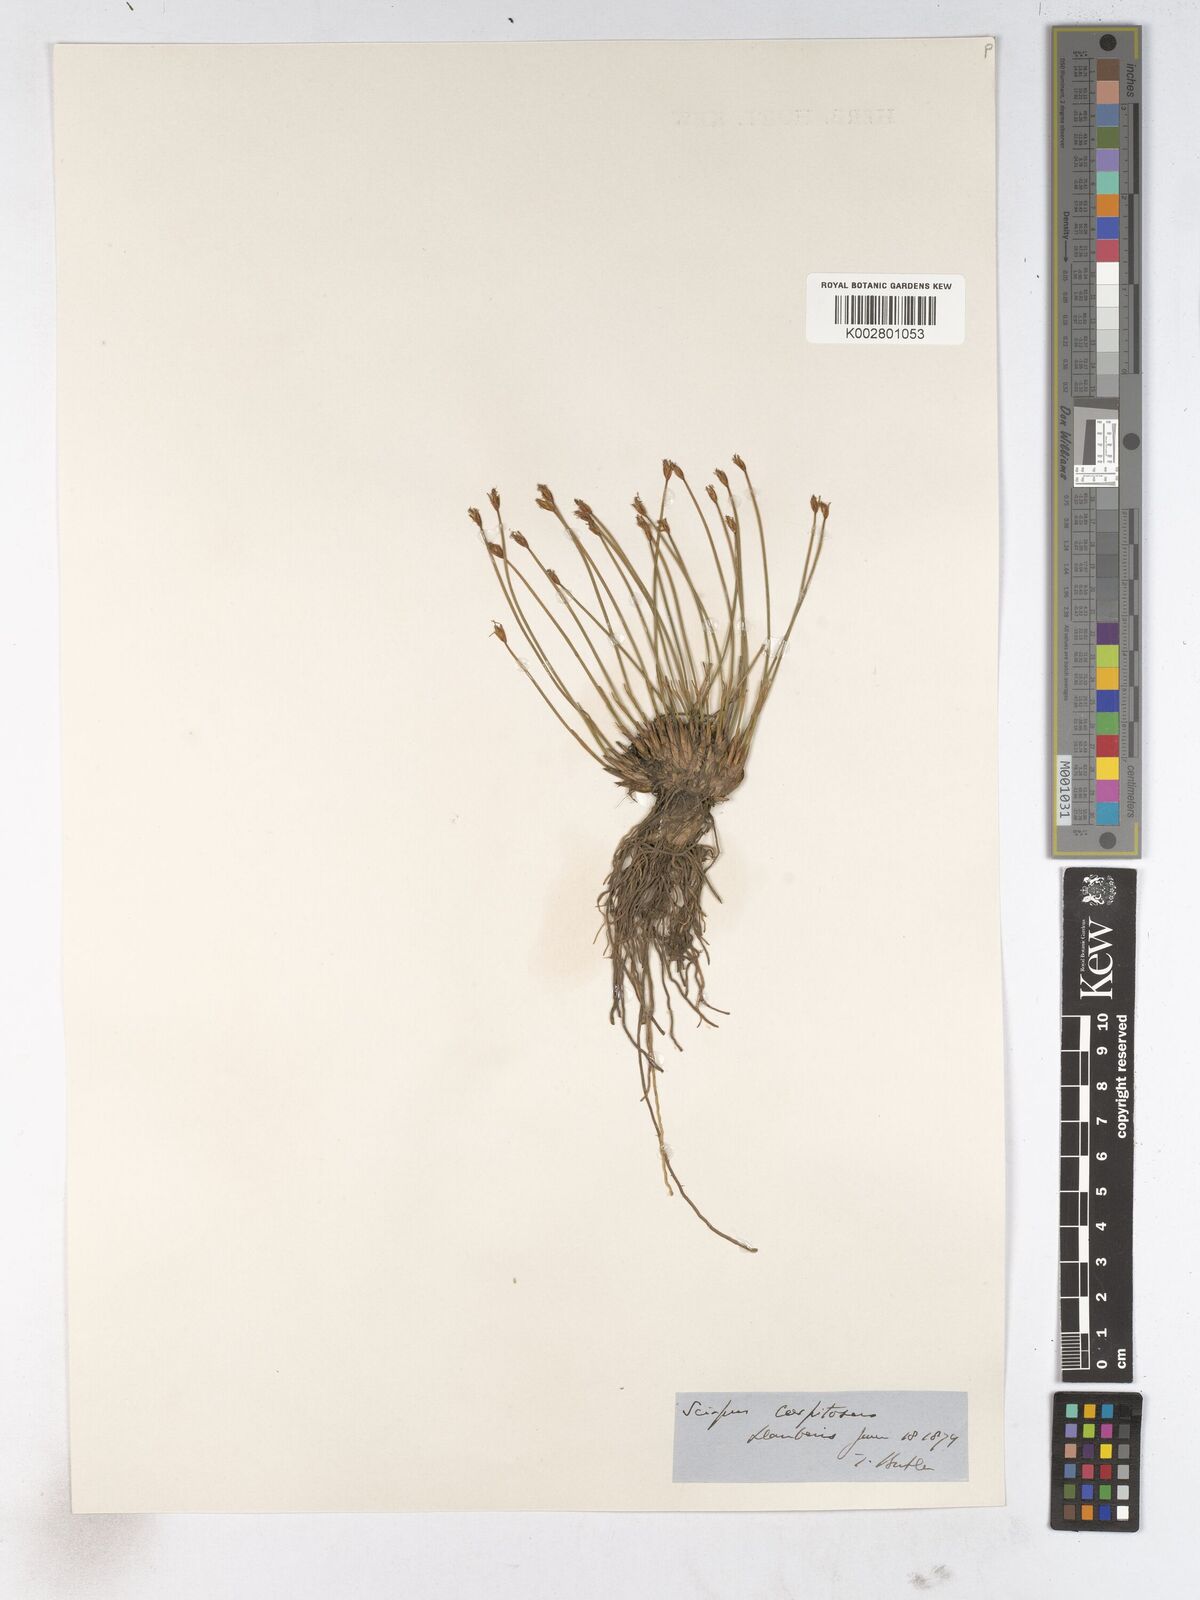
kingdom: Plantae
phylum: Tracheophyta
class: Liliopsida
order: Poales
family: Cyperaceae
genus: Trichophorum
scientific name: Trichophorum cespitosum
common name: Cespitose bulrush
